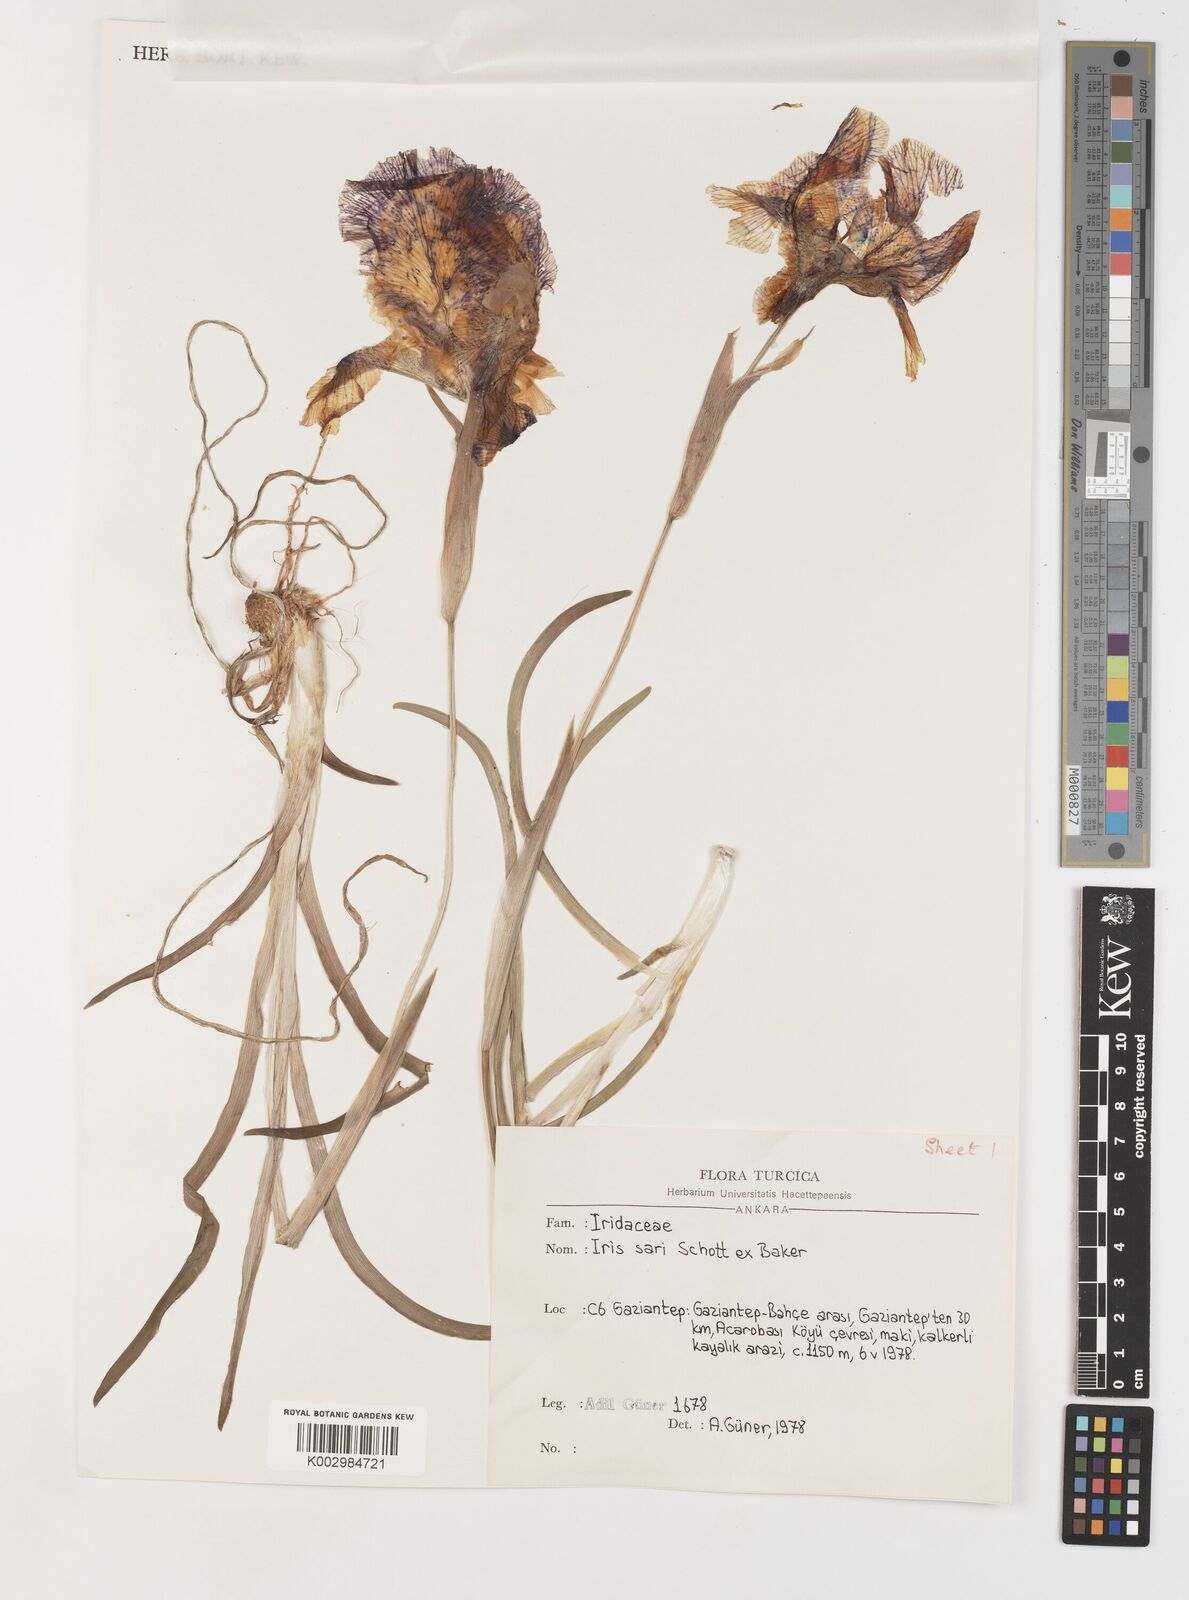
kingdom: Plantae
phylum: Tracheophyta
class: Liliopsida
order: Asparagales
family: Iridaceae
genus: Iris
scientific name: Iris sari
